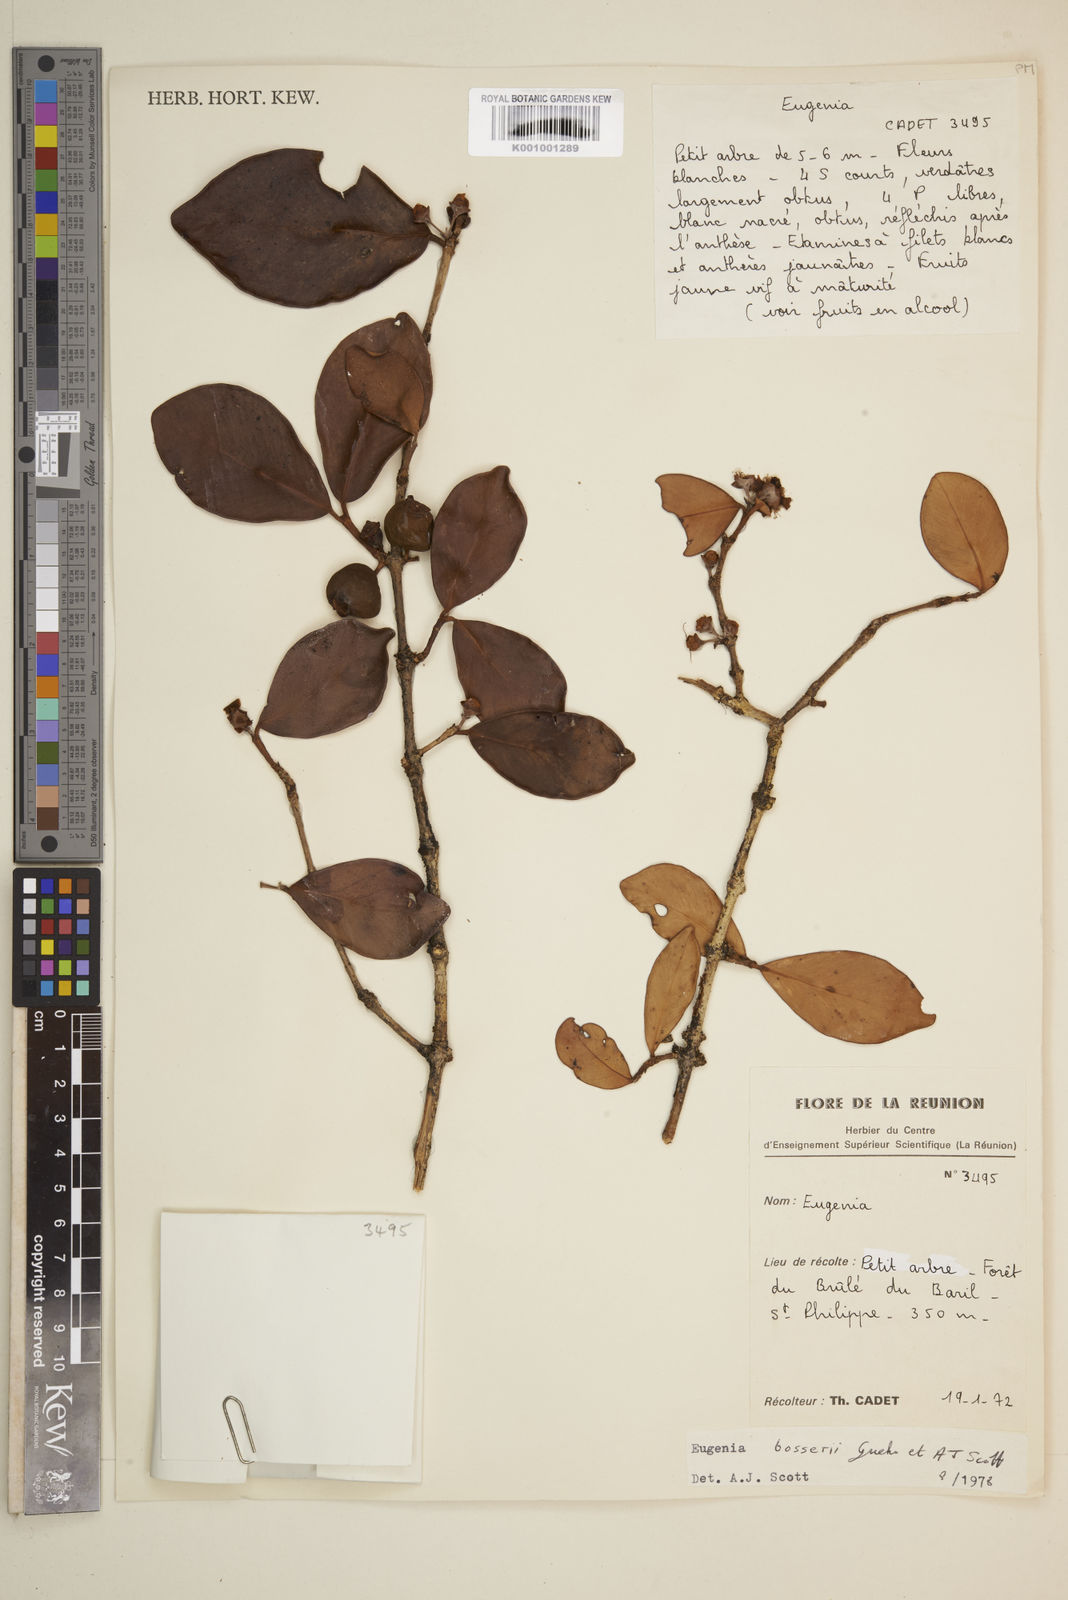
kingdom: Plantae
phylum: Tracheophyta
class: Magnoliopsida
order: Myrtales
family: Myrtaceae
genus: Eugenia
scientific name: Eugenia
